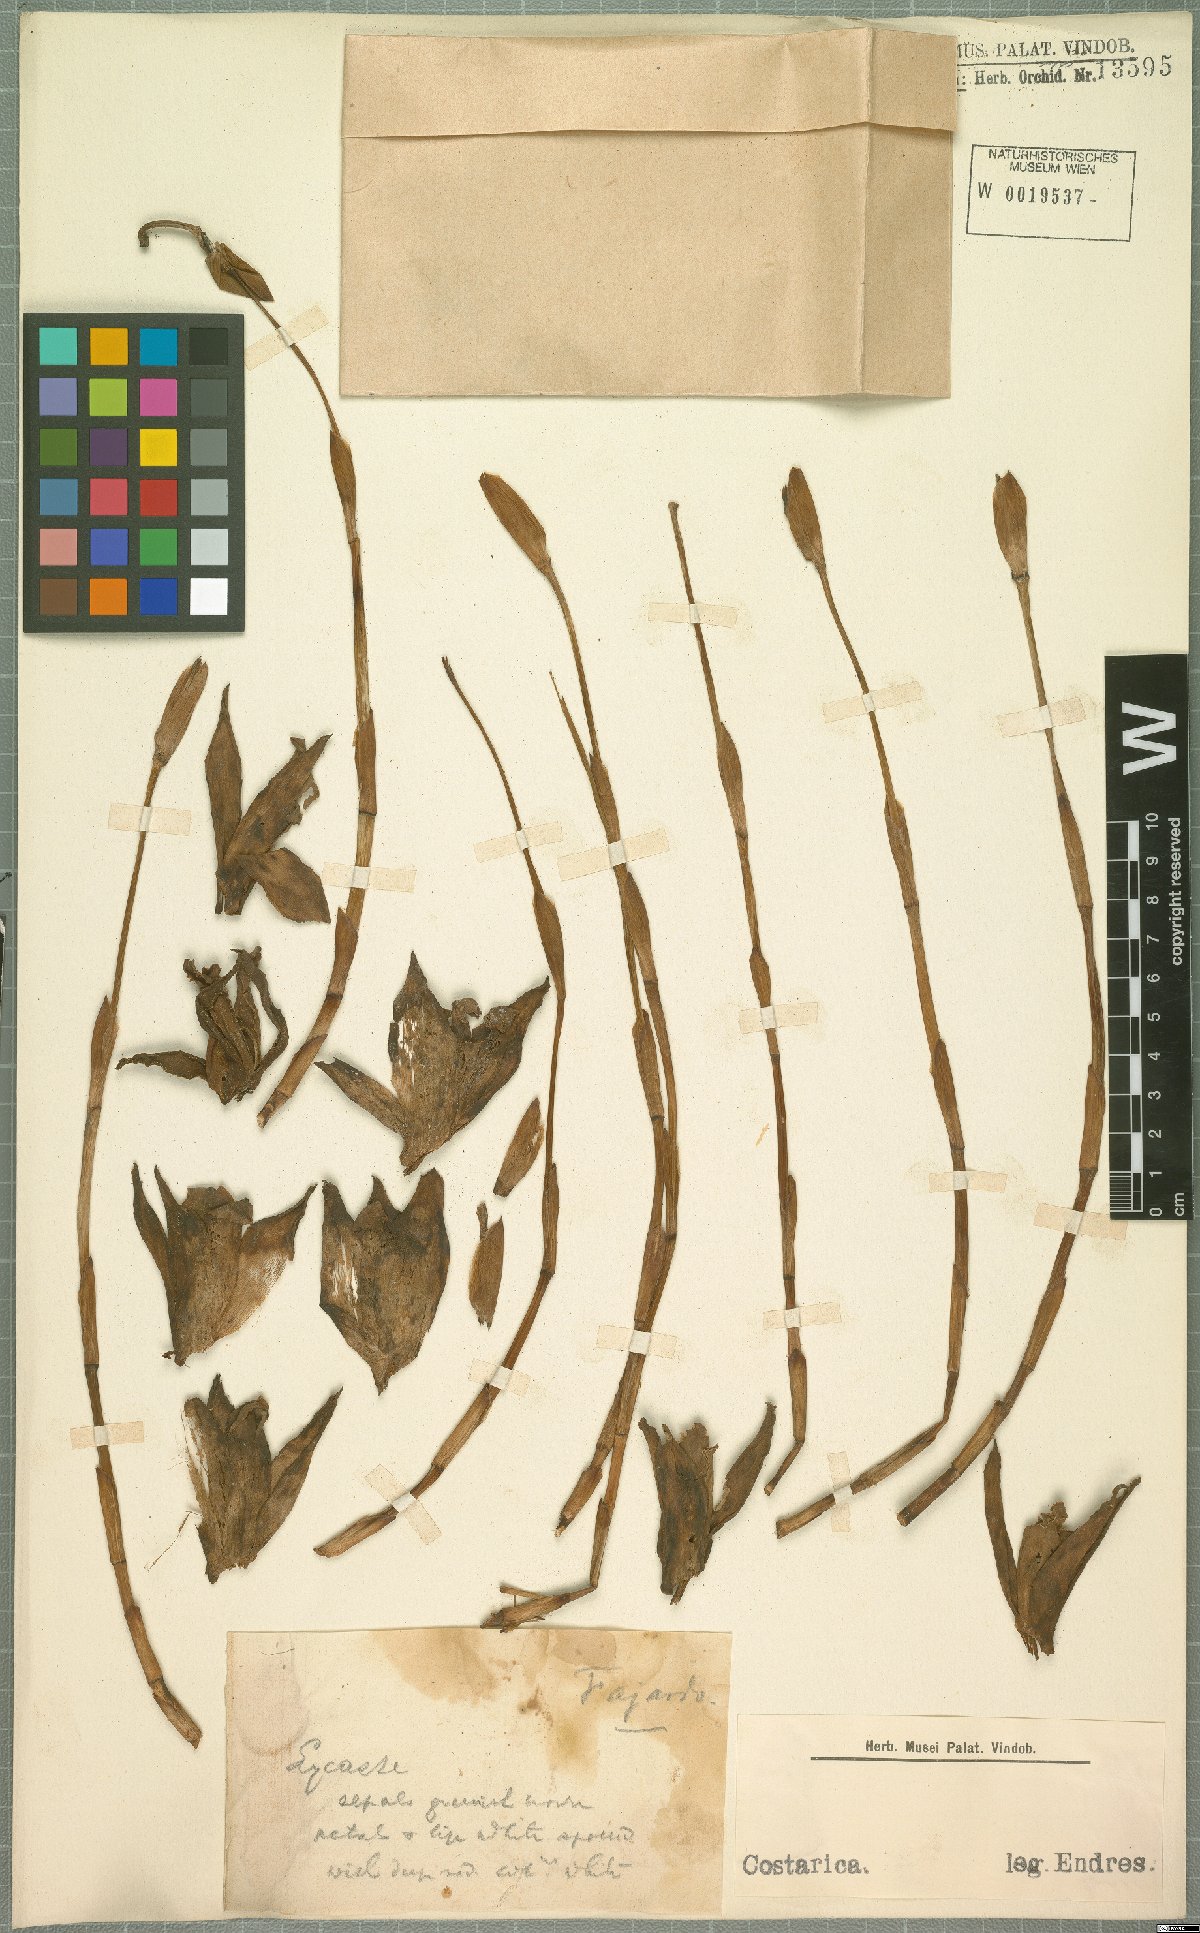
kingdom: Plantae
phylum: Tracheophyta
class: Liliopsida
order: Asparagales
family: Orchidaceae
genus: Lycaste
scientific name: Lycaste
